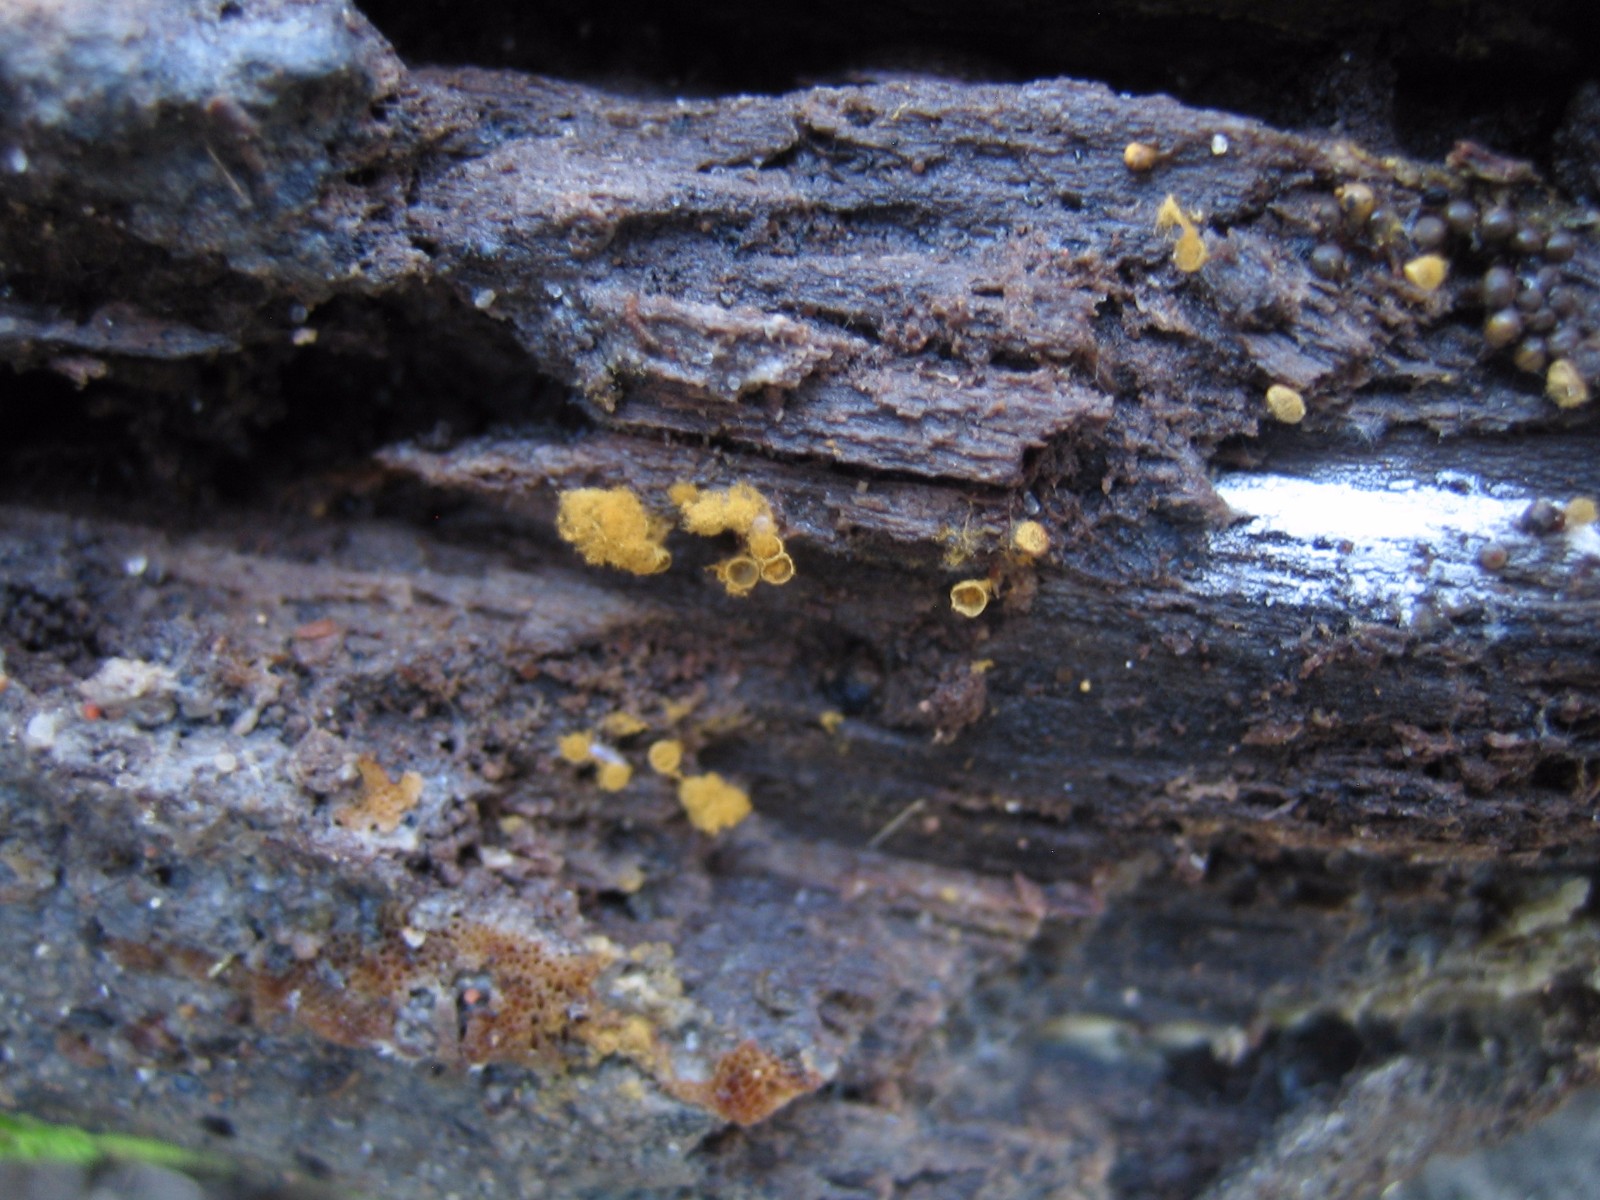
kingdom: Protozoa
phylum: Mycetozoa
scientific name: Mycetozoa
